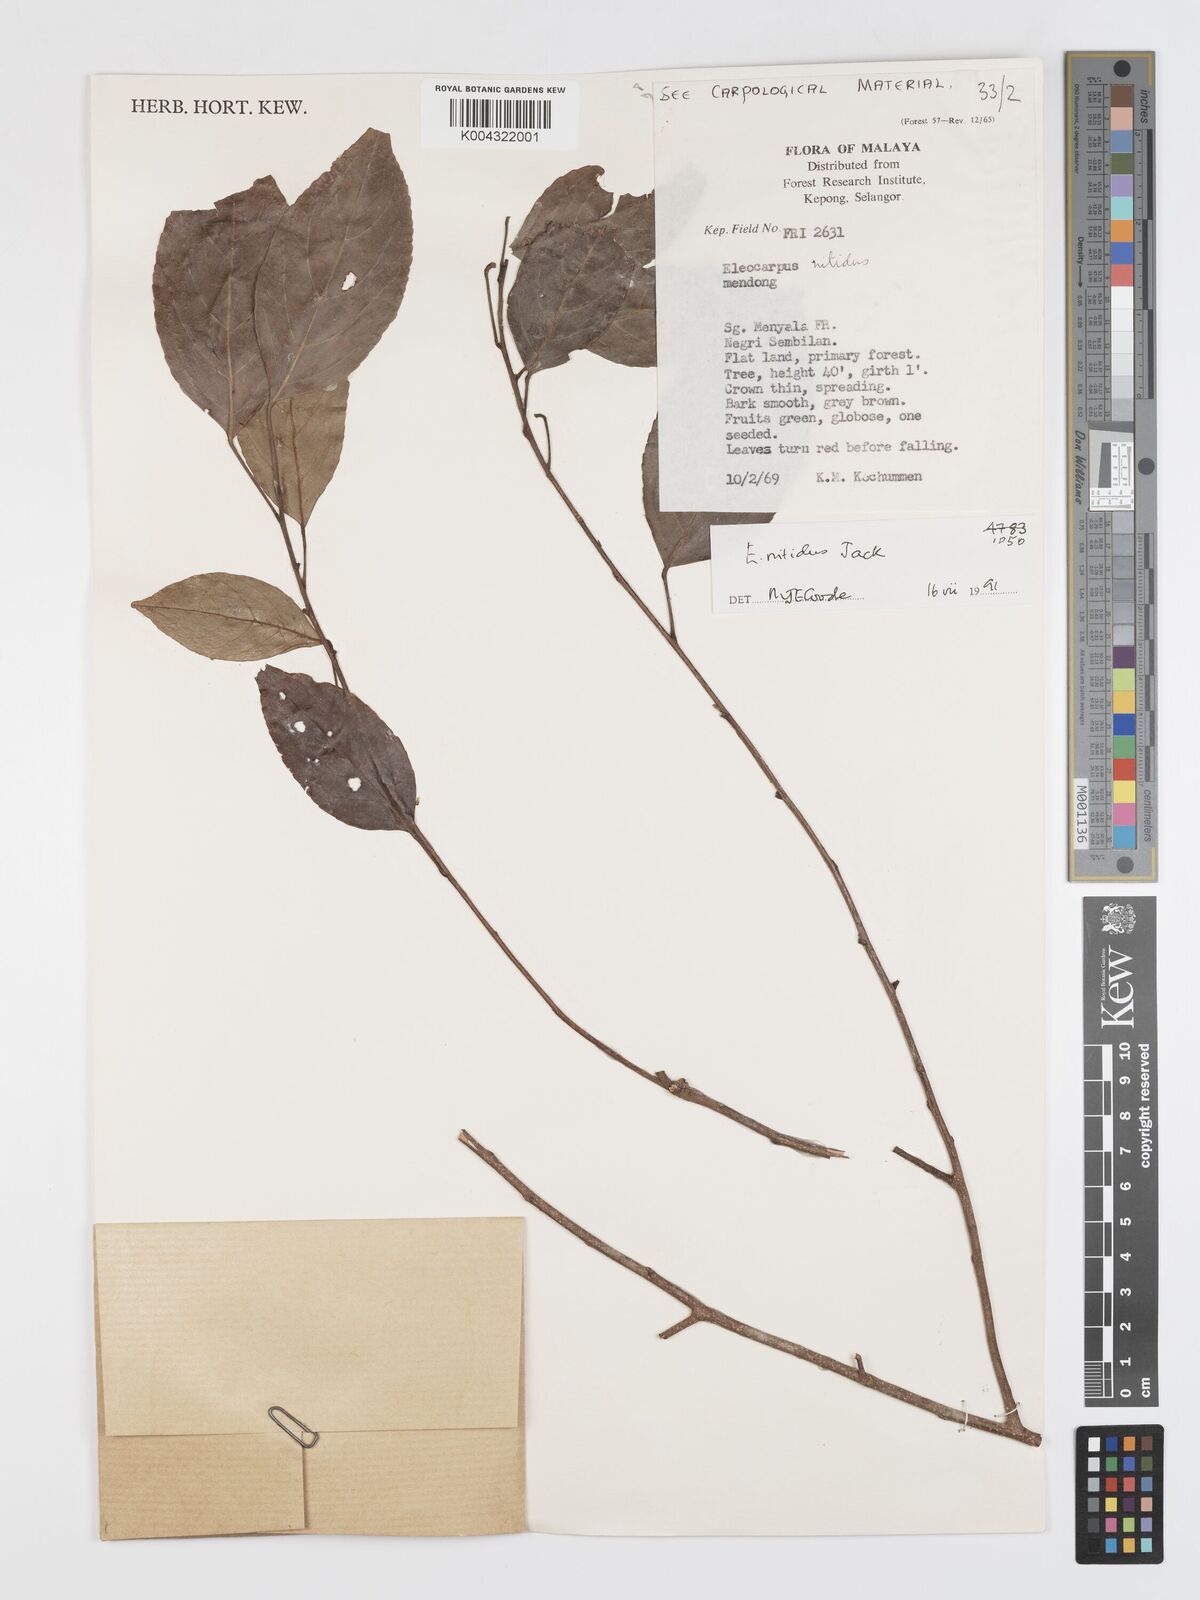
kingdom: Plantae
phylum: Tracheophyta
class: Magnoliopsida
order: Oxalidales
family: Elaeocarpaceae
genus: Elaeocarpus
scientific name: Elaeocarpus nitidus
